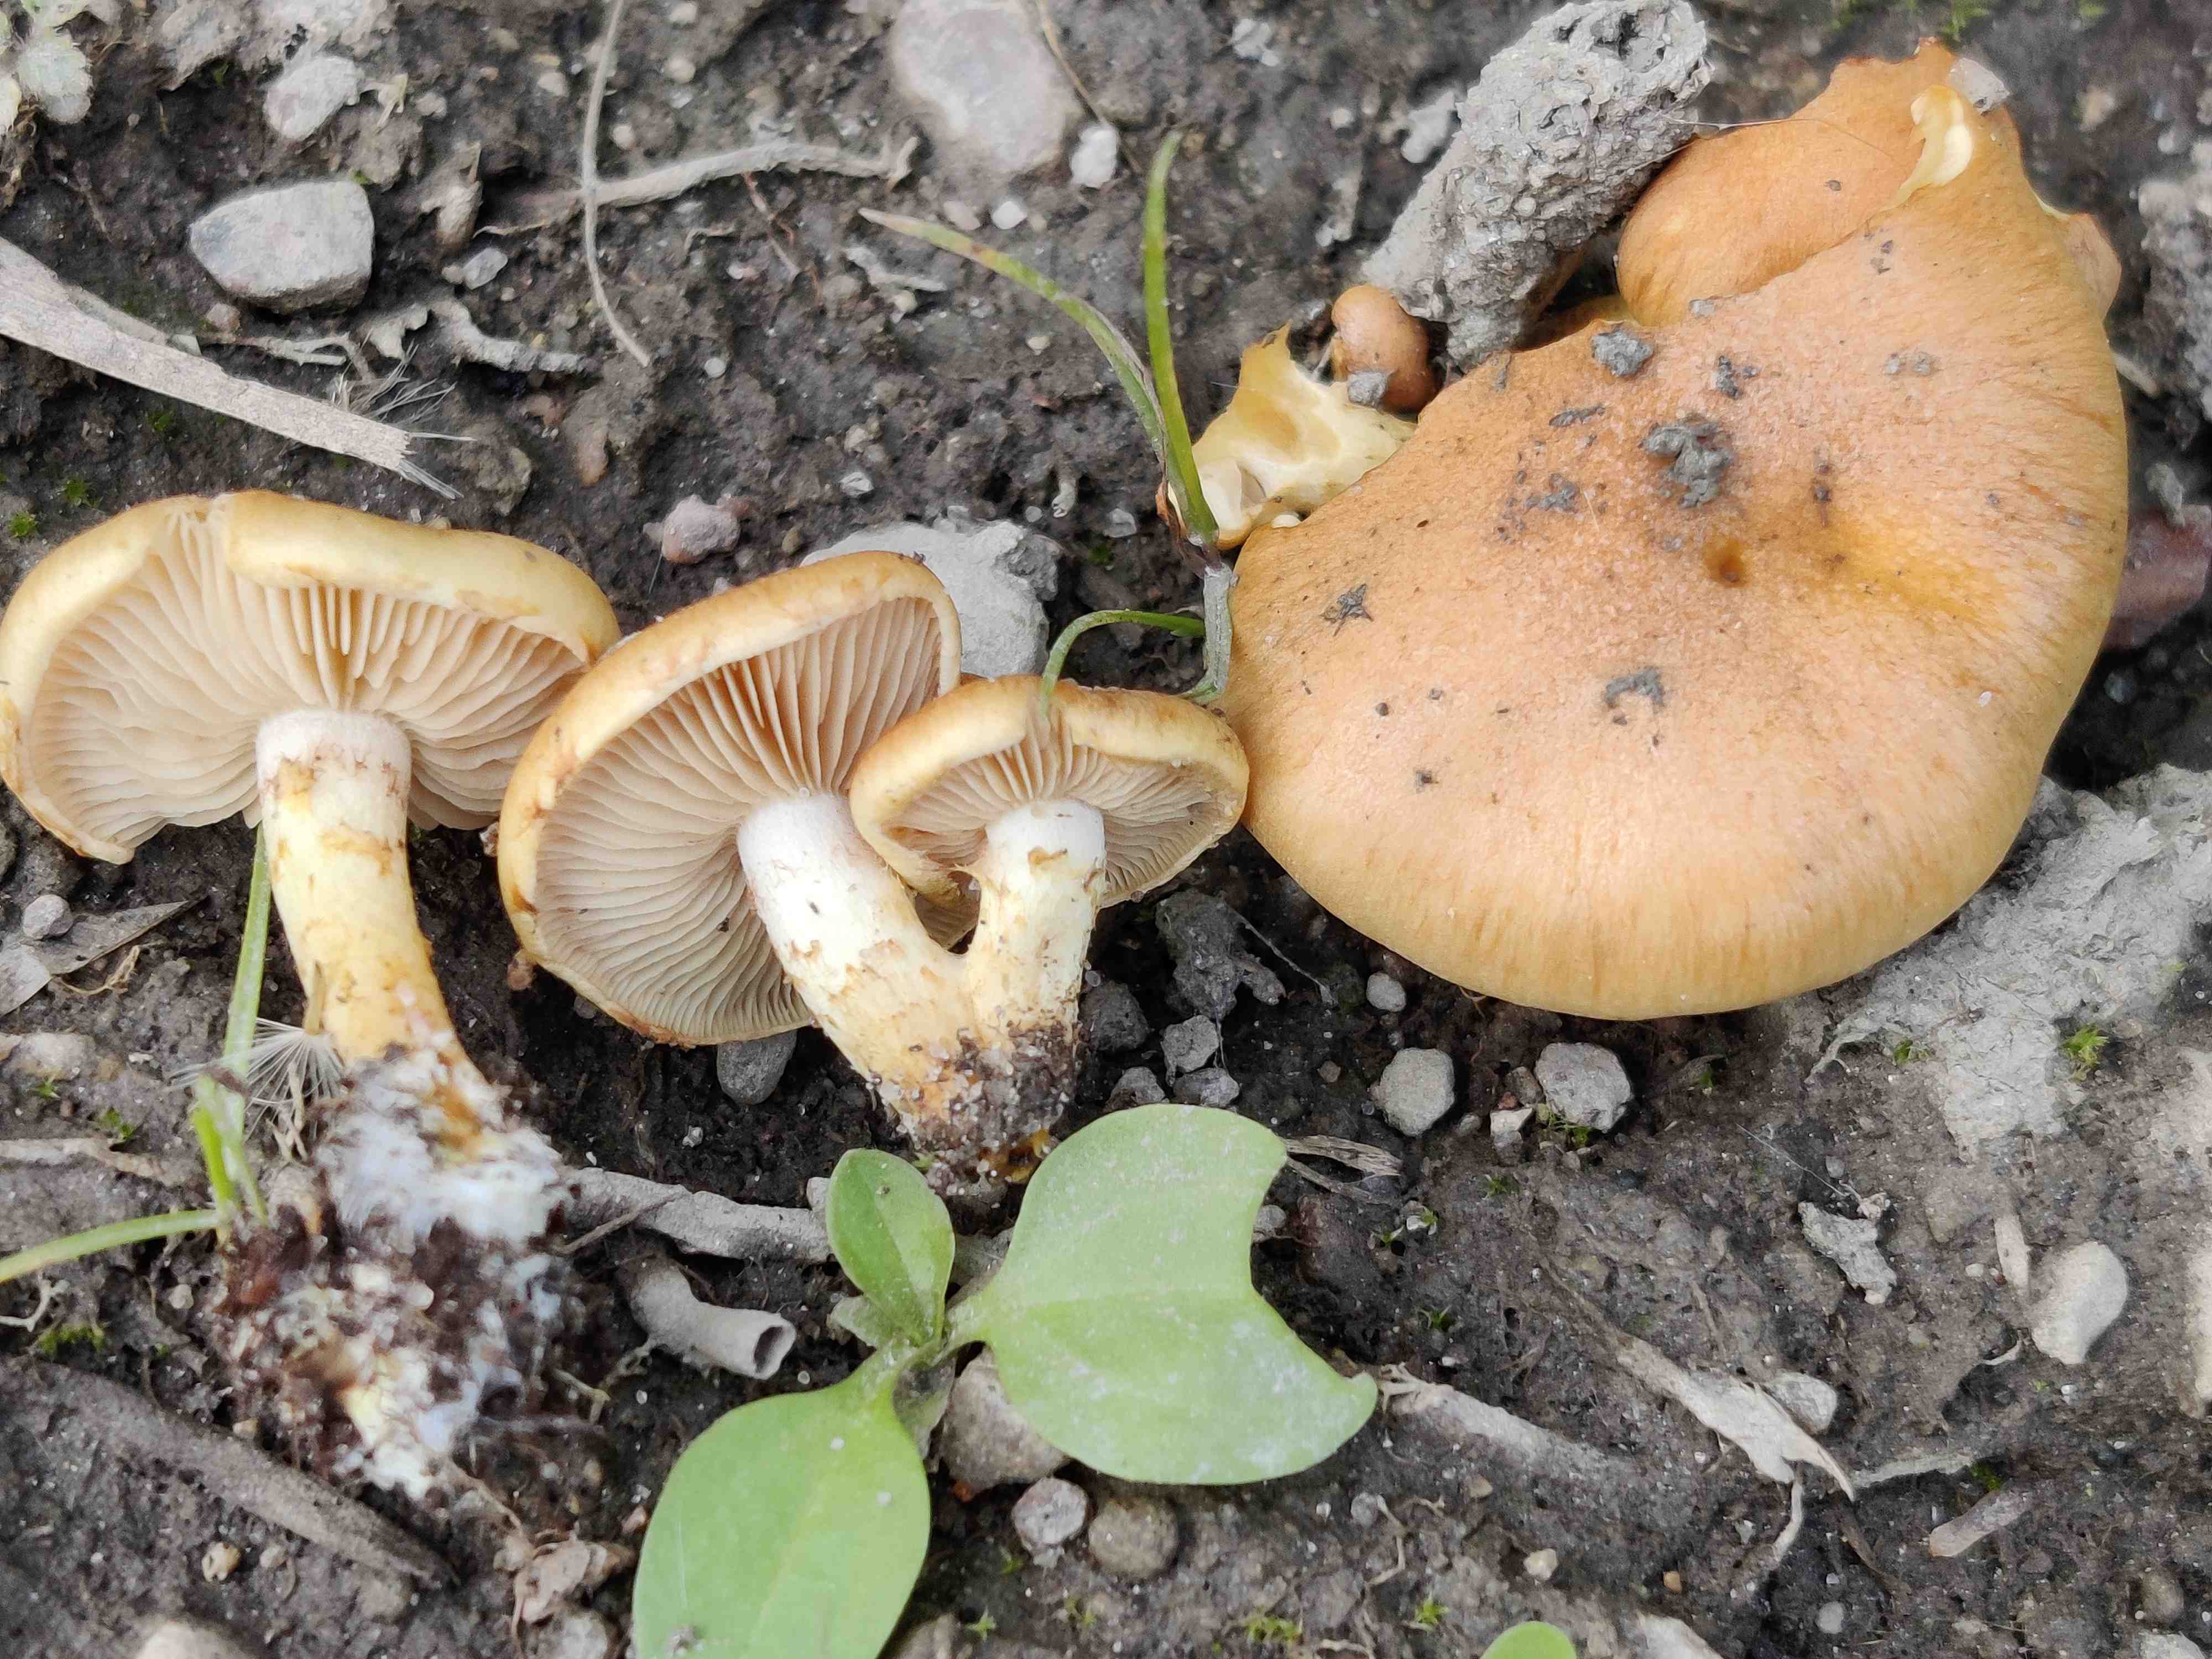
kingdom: Fungi
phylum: Basidiomycota
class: Agaricomycetes
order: Agaricales
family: Strophariaceae
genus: Pholiota
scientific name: Pholiota conissans
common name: pile-skælhat
